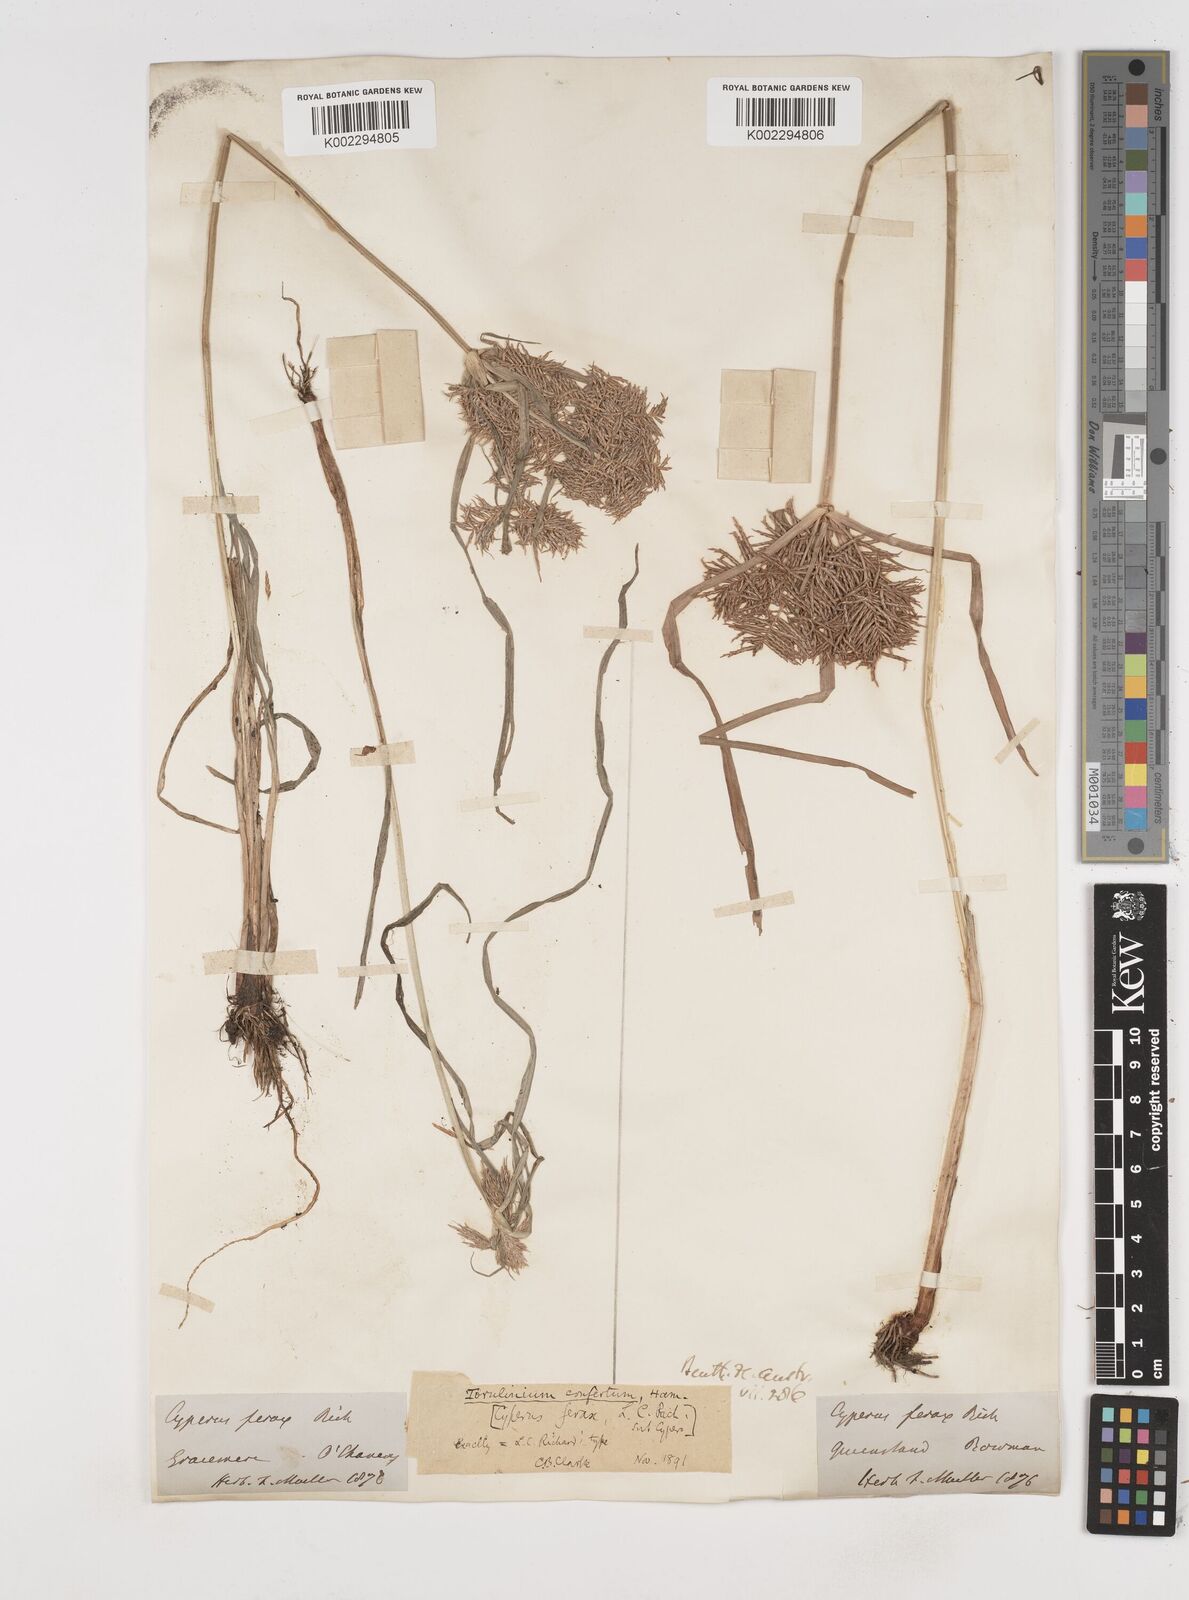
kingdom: Plantae
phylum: Tracheophyta
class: Liliopsida
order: Poales
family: Cyperaceae
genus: Cyperus
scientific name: Cyperus odoratus
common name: Fragrant flatsedge
